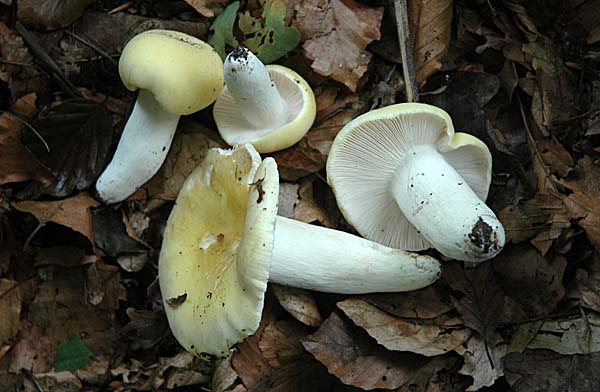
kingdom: Fungi
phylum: Basidiomycota
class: Agaricomycetes
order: Russulales
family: Russulaceae
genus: Russula
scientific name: Russula violeipes
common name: ferskengul skørhat
